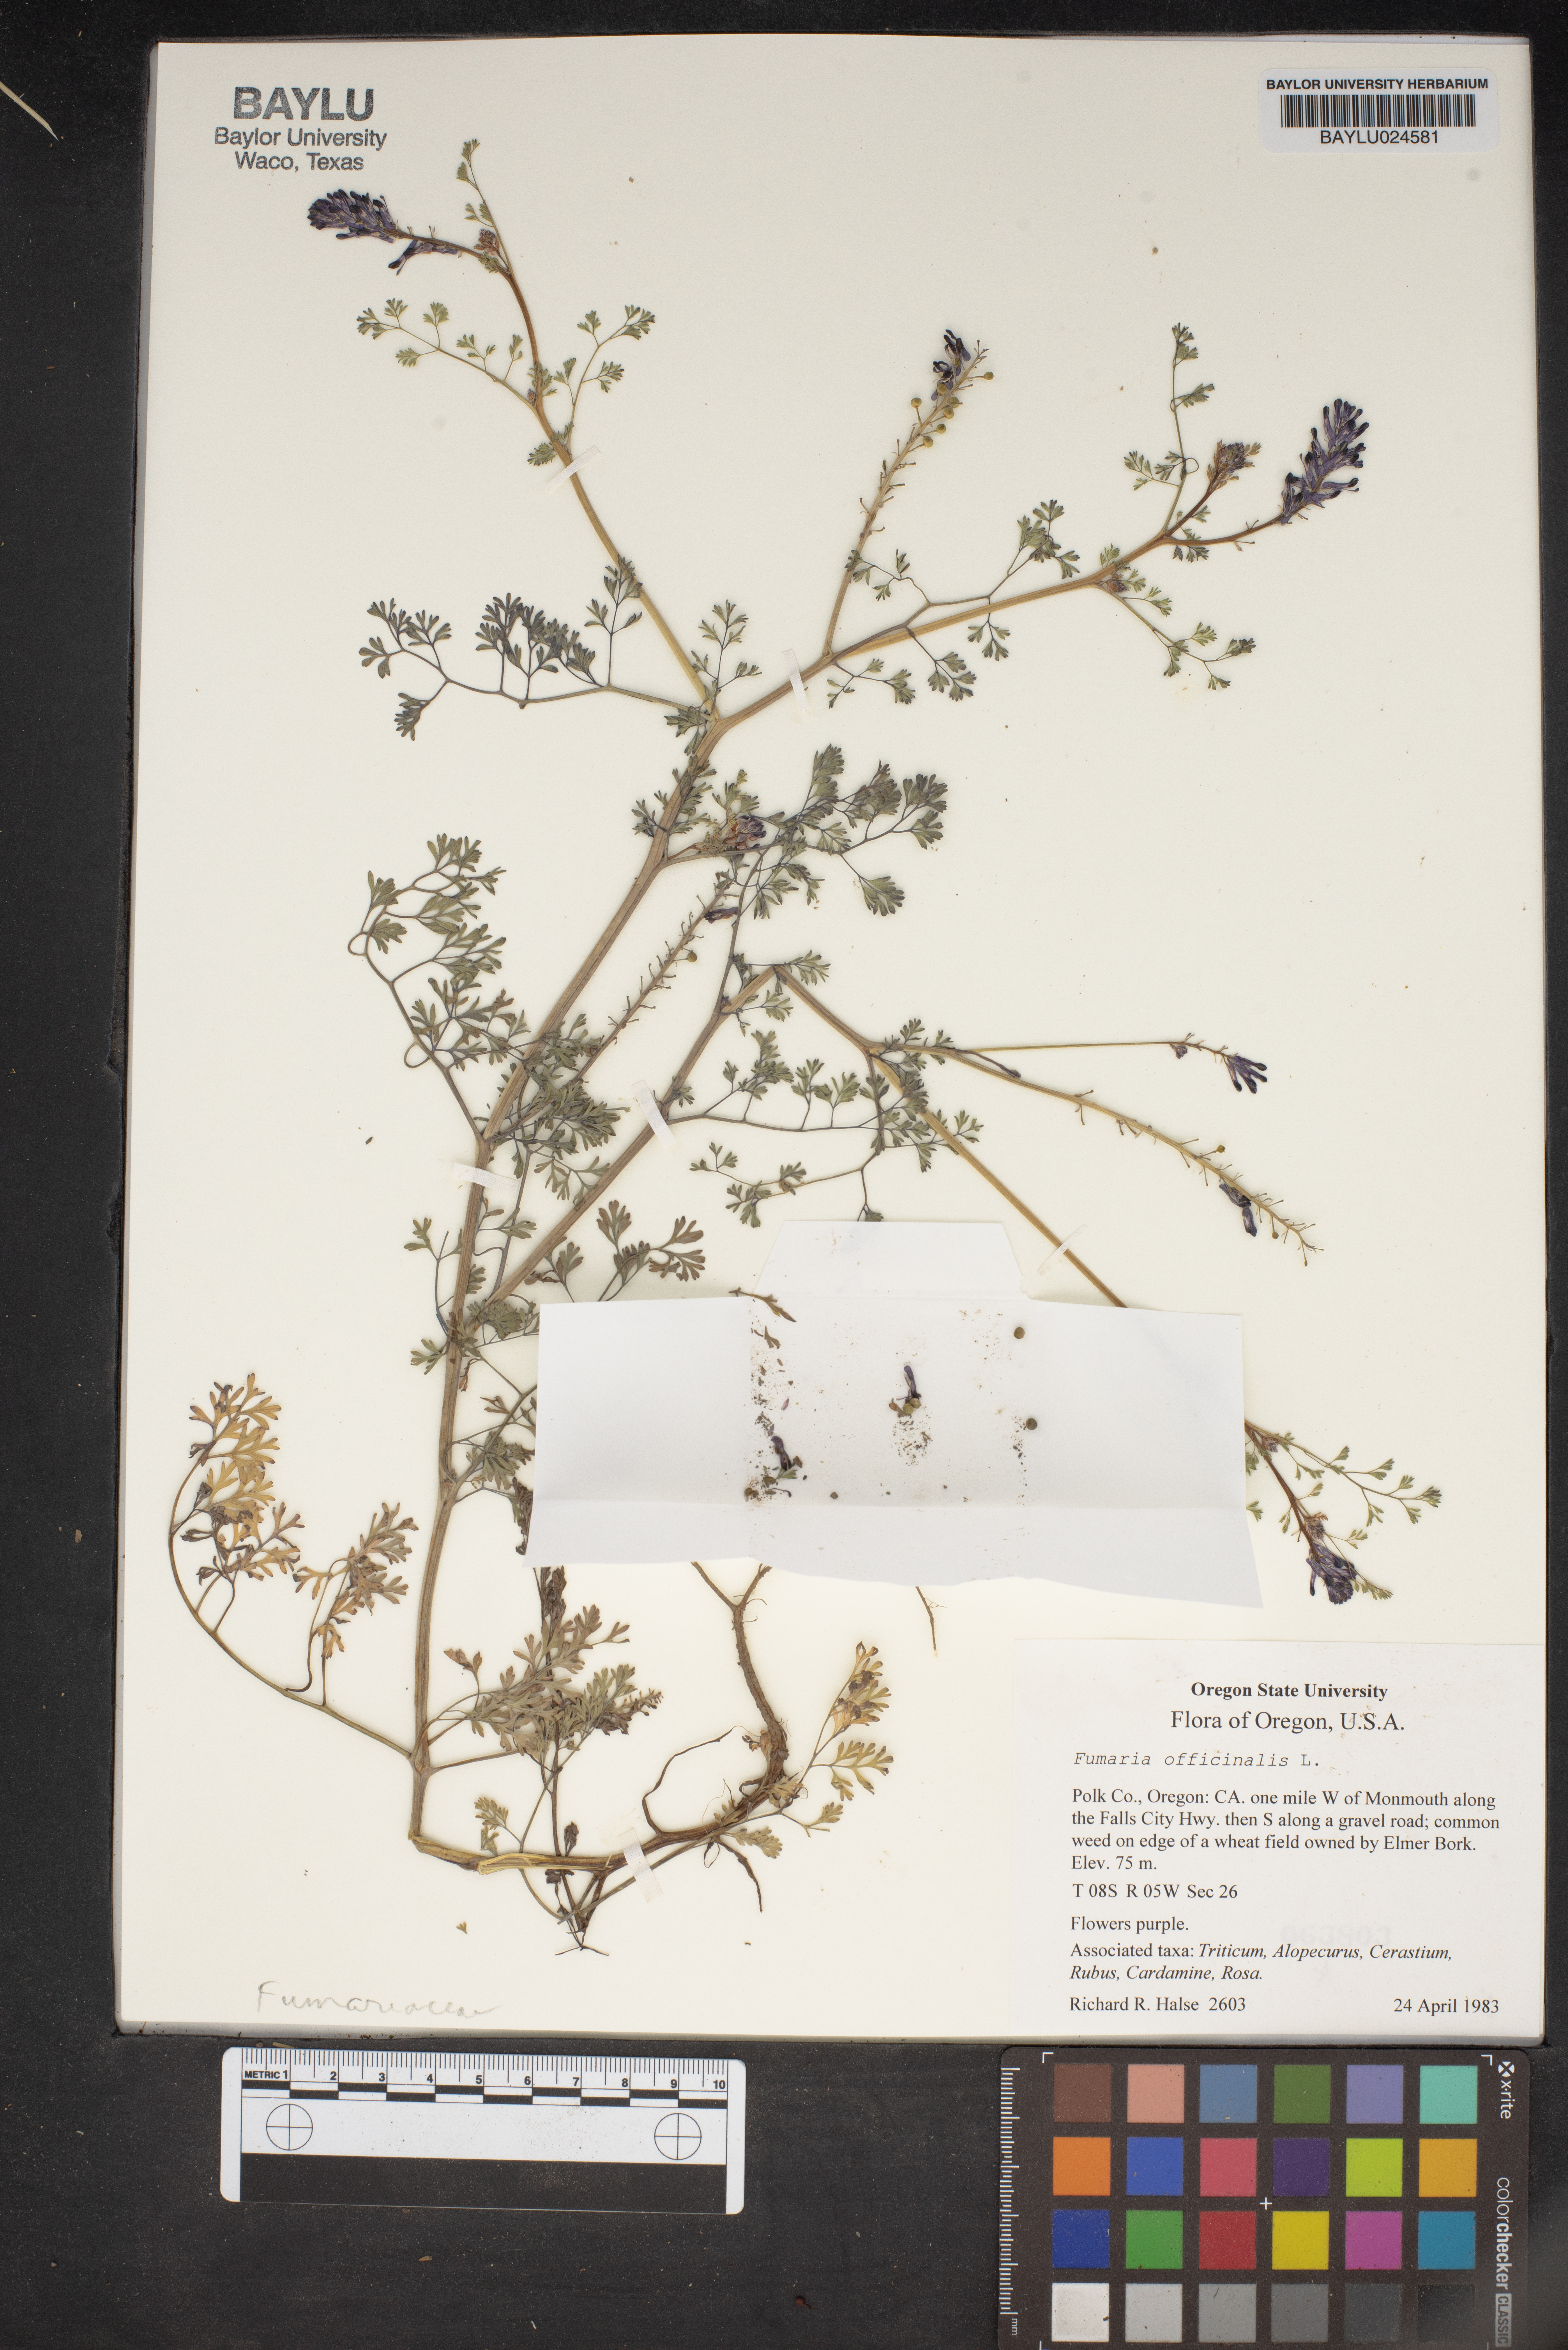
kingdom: Plantae
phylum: Tracheophyta
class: Magnoliopsida
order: Ranunculales
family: Papaveraceae
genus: Fumaria
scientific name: Fumaria officinalis
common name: Common fumitory
